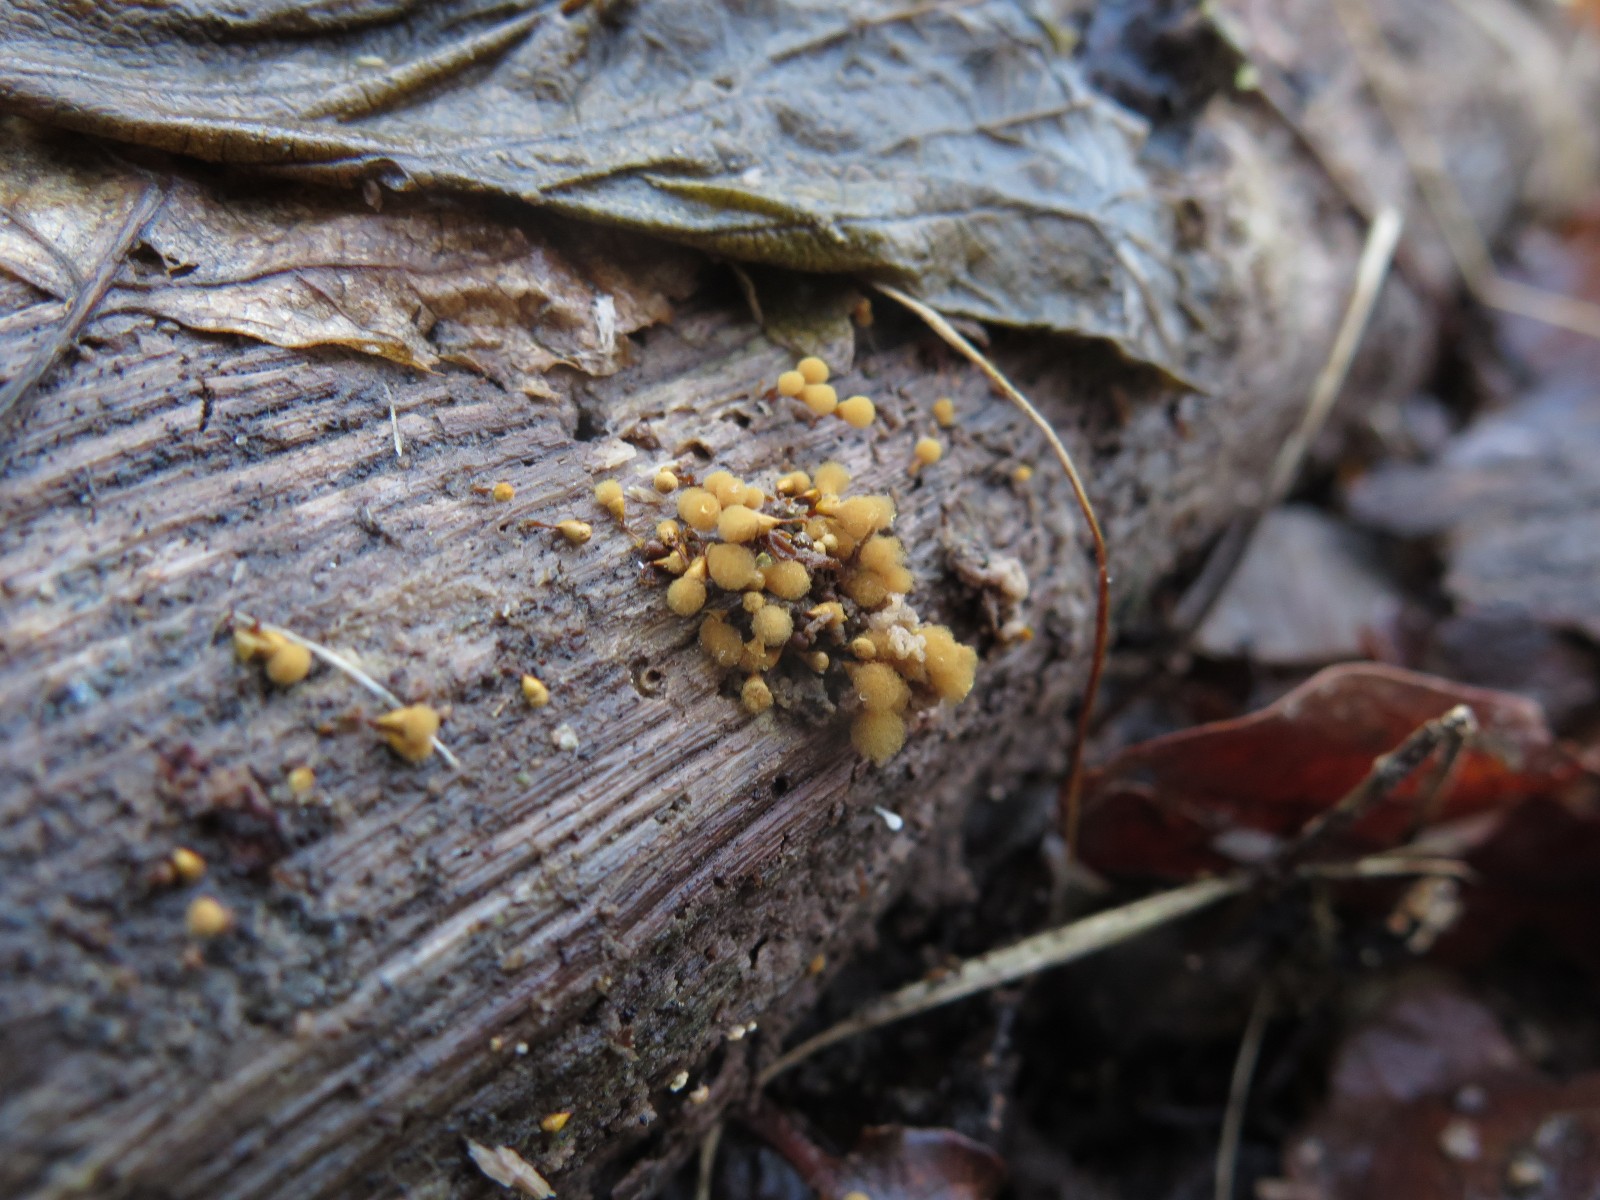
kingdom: Protozoa
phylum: Mycetozoa
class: Myxomycetes
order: Trichiales
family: Arcyriaceae
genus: Hemitrichia
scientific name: Hemitrichia clavata
